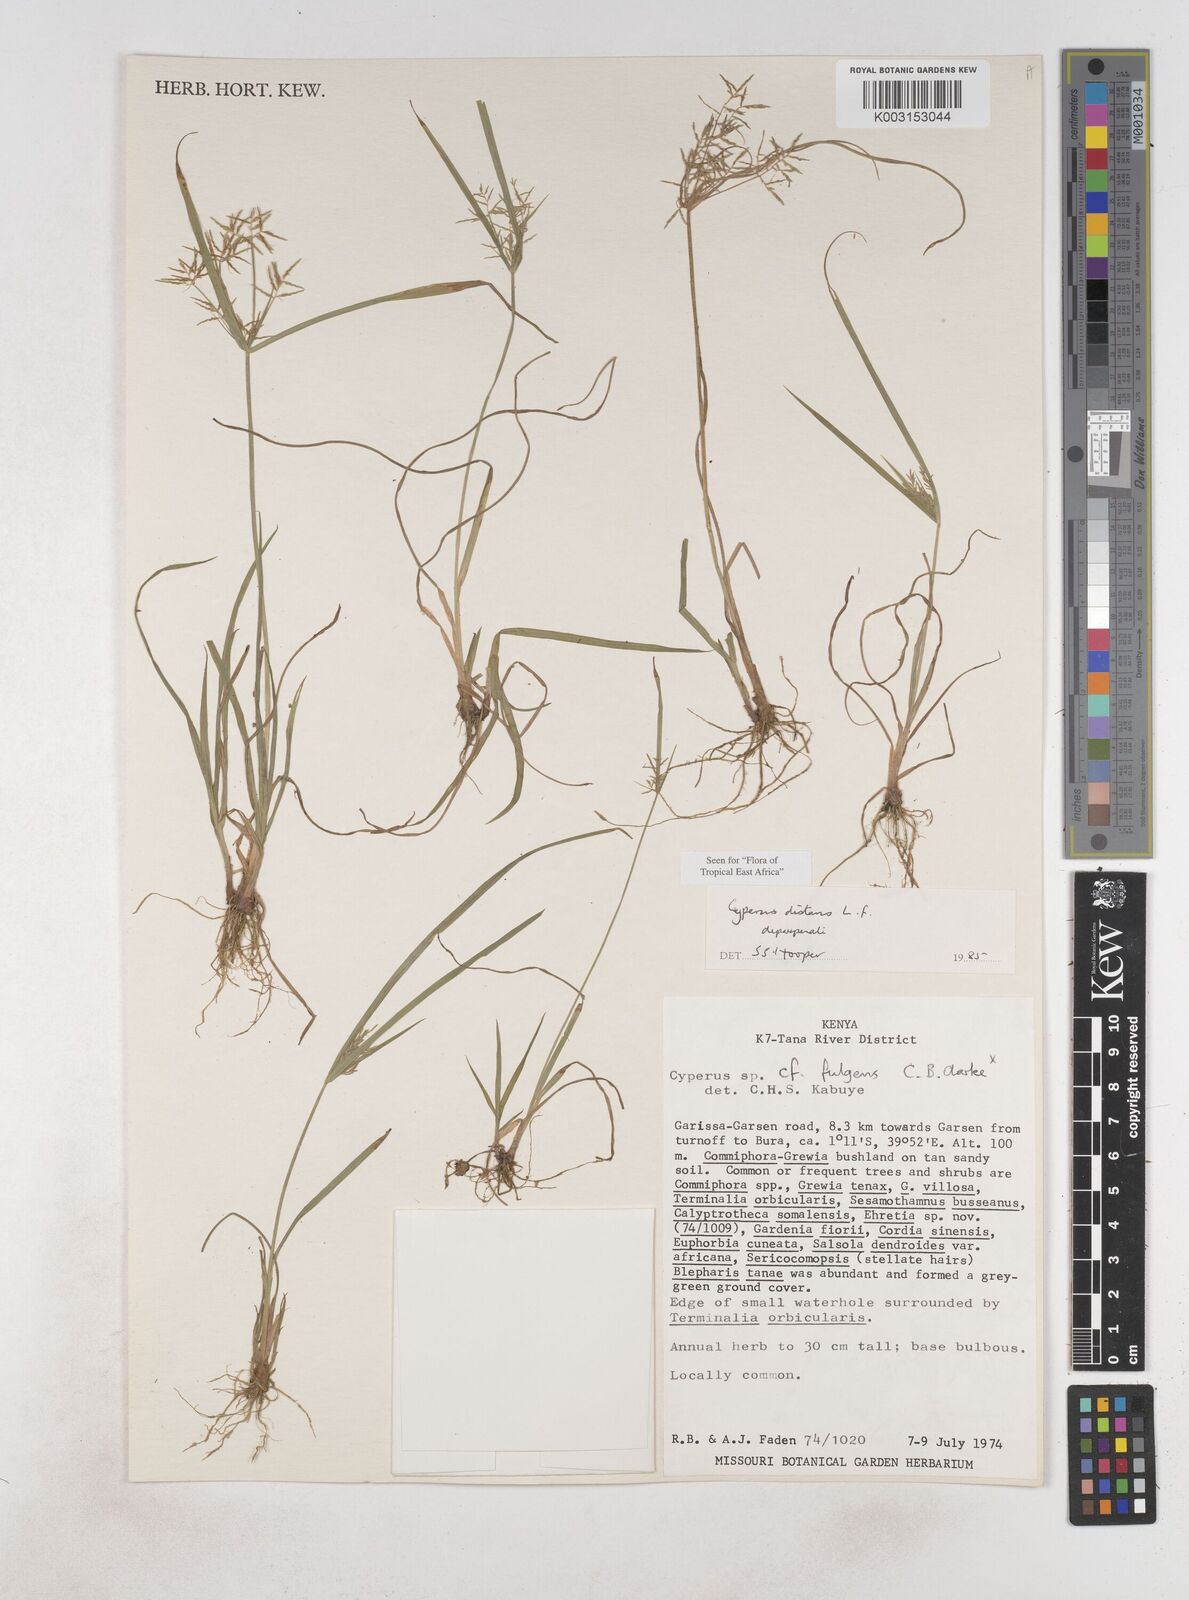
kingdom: Plantae
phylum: Tracheophyta
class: Liliopsida
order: Poales
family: Cyperaceae
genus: Cyperus
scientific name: Cyperus distans
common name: Slender cyperus
